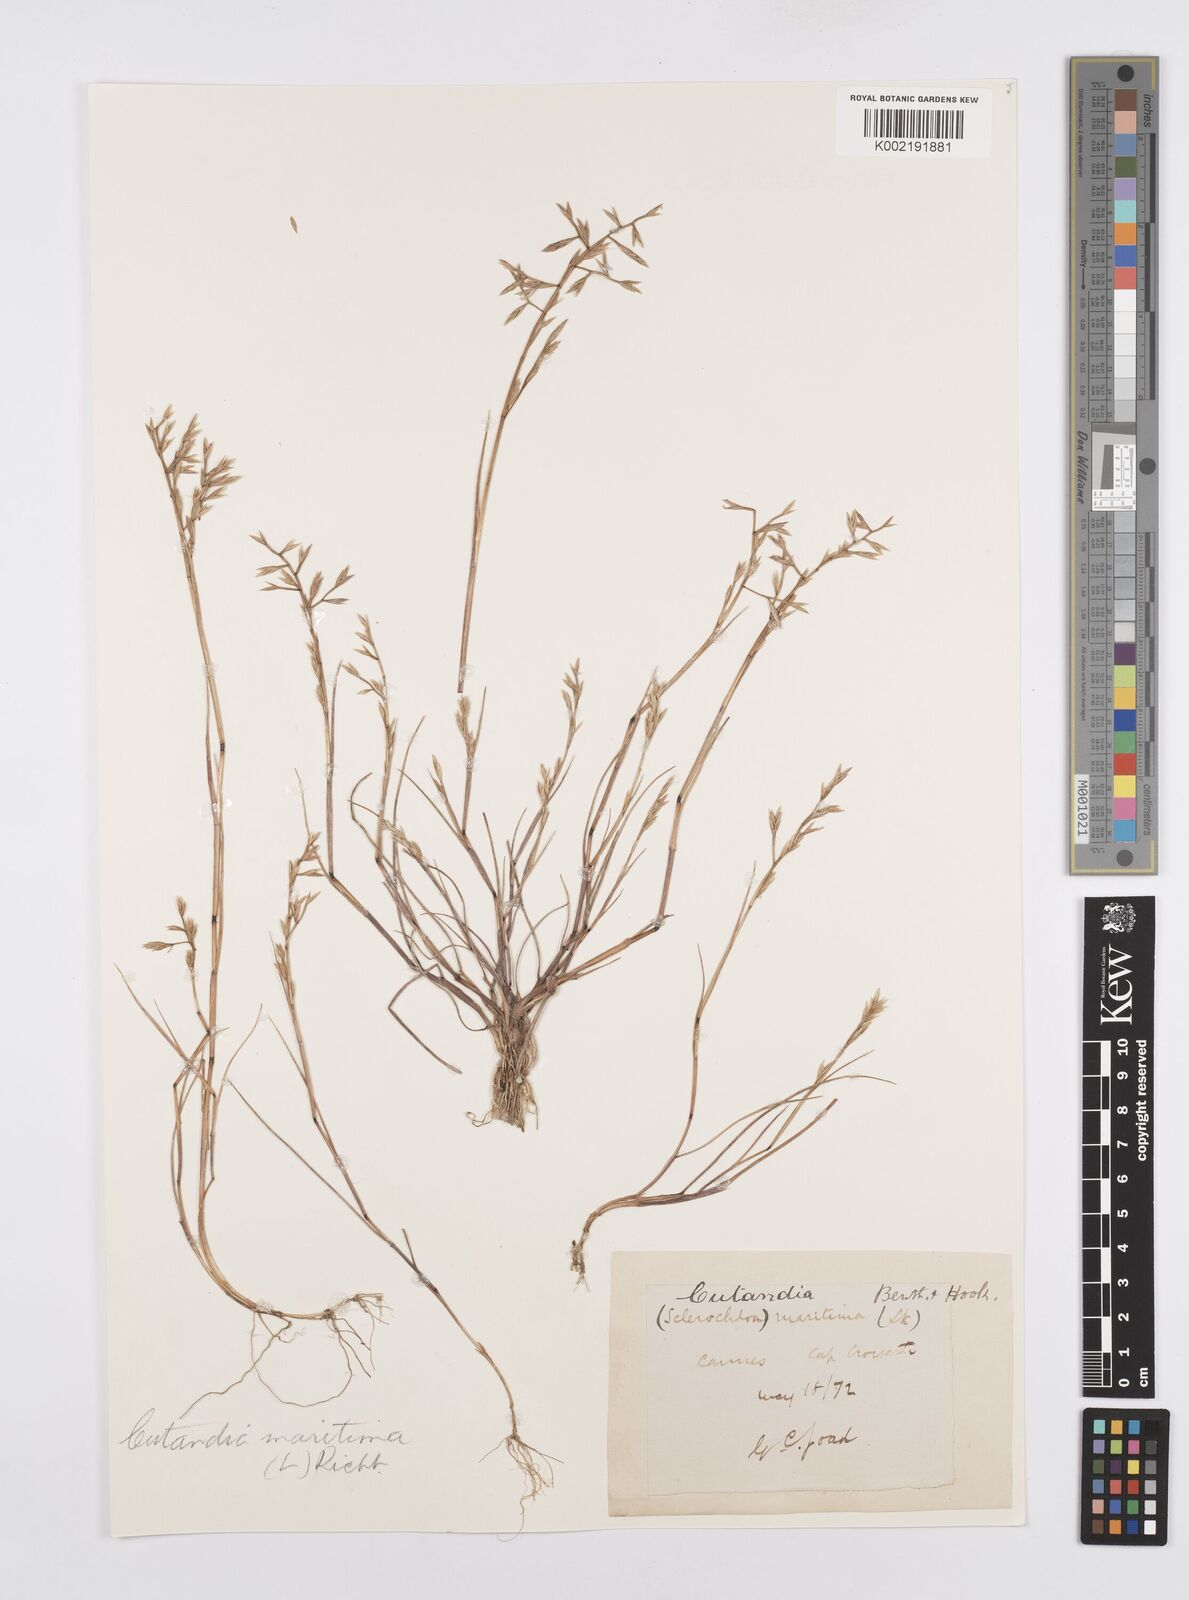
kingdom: Plantae
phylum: Tracheophyta
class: Liliopsida
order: Poales
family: Poaceae
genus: Cutandia
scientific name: Cutandia maritima
